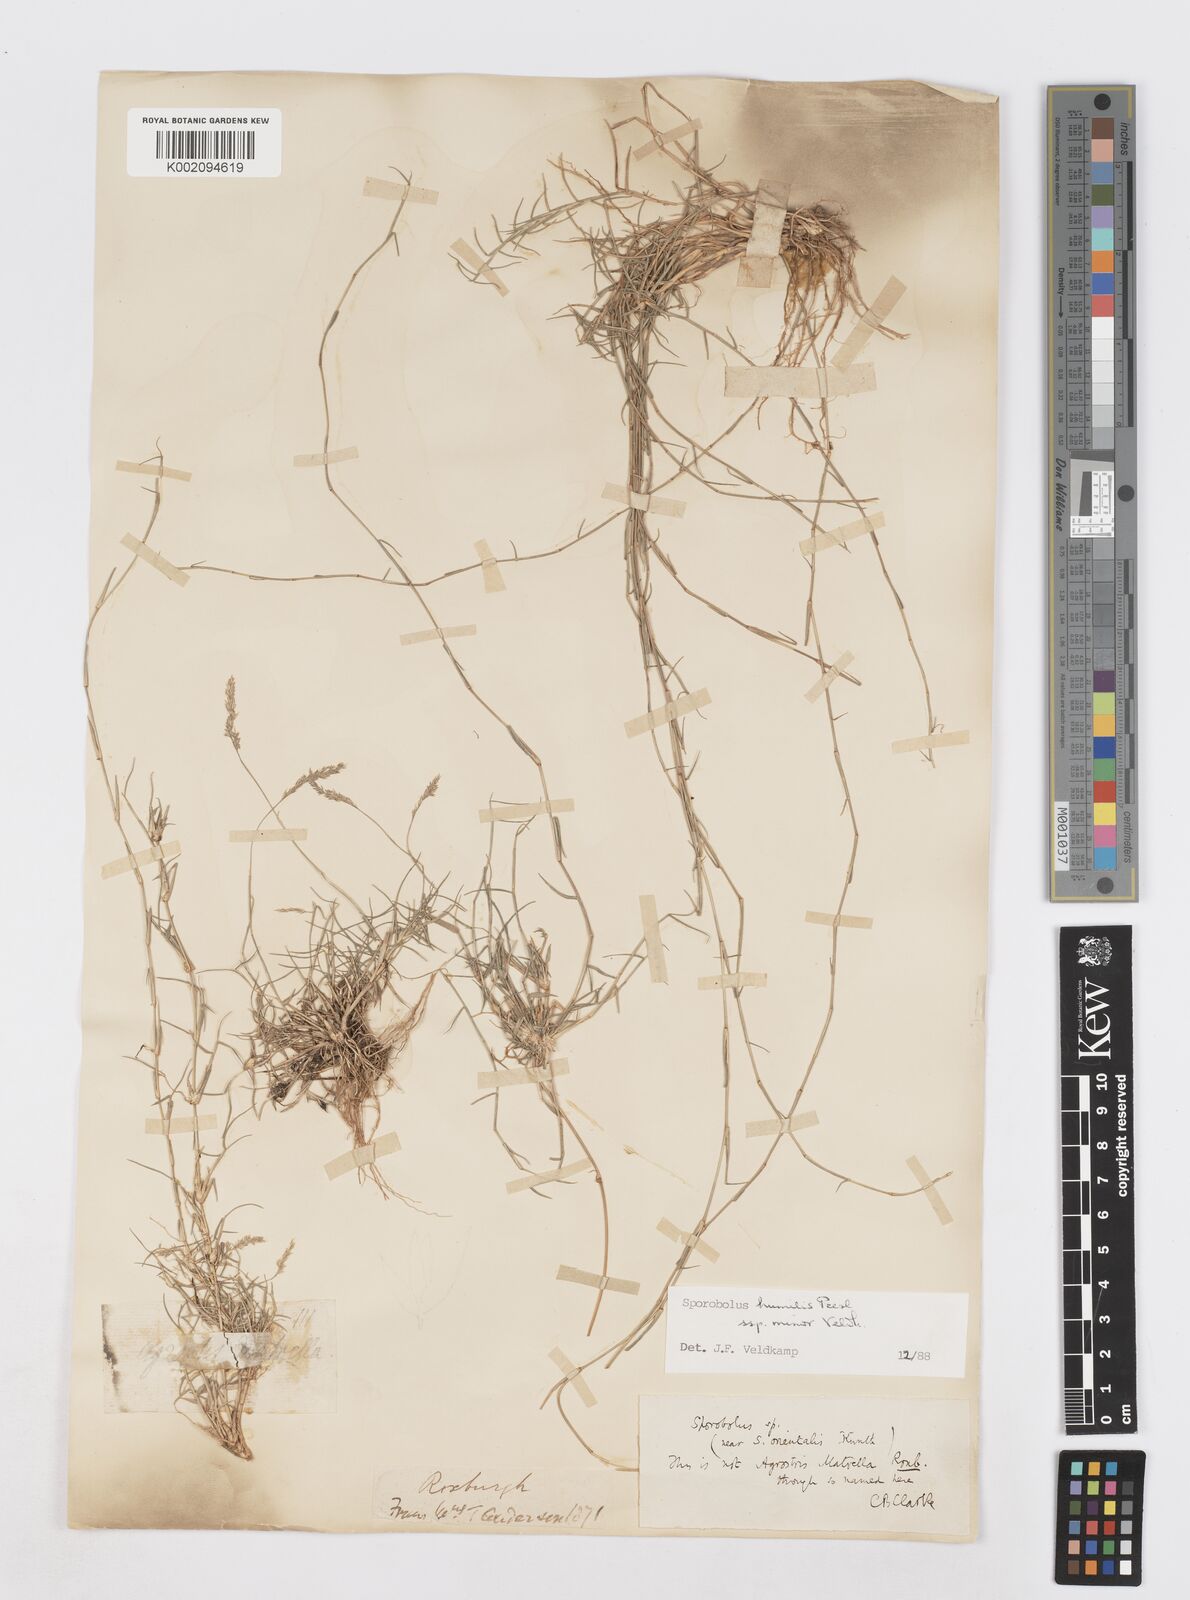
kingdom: Plantae
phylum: Tracheophyta
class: Liliopsida
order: Poales
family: Poaceae
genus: Sporobolus
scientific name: Sporobolus virginicus
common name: Beach dropseed
